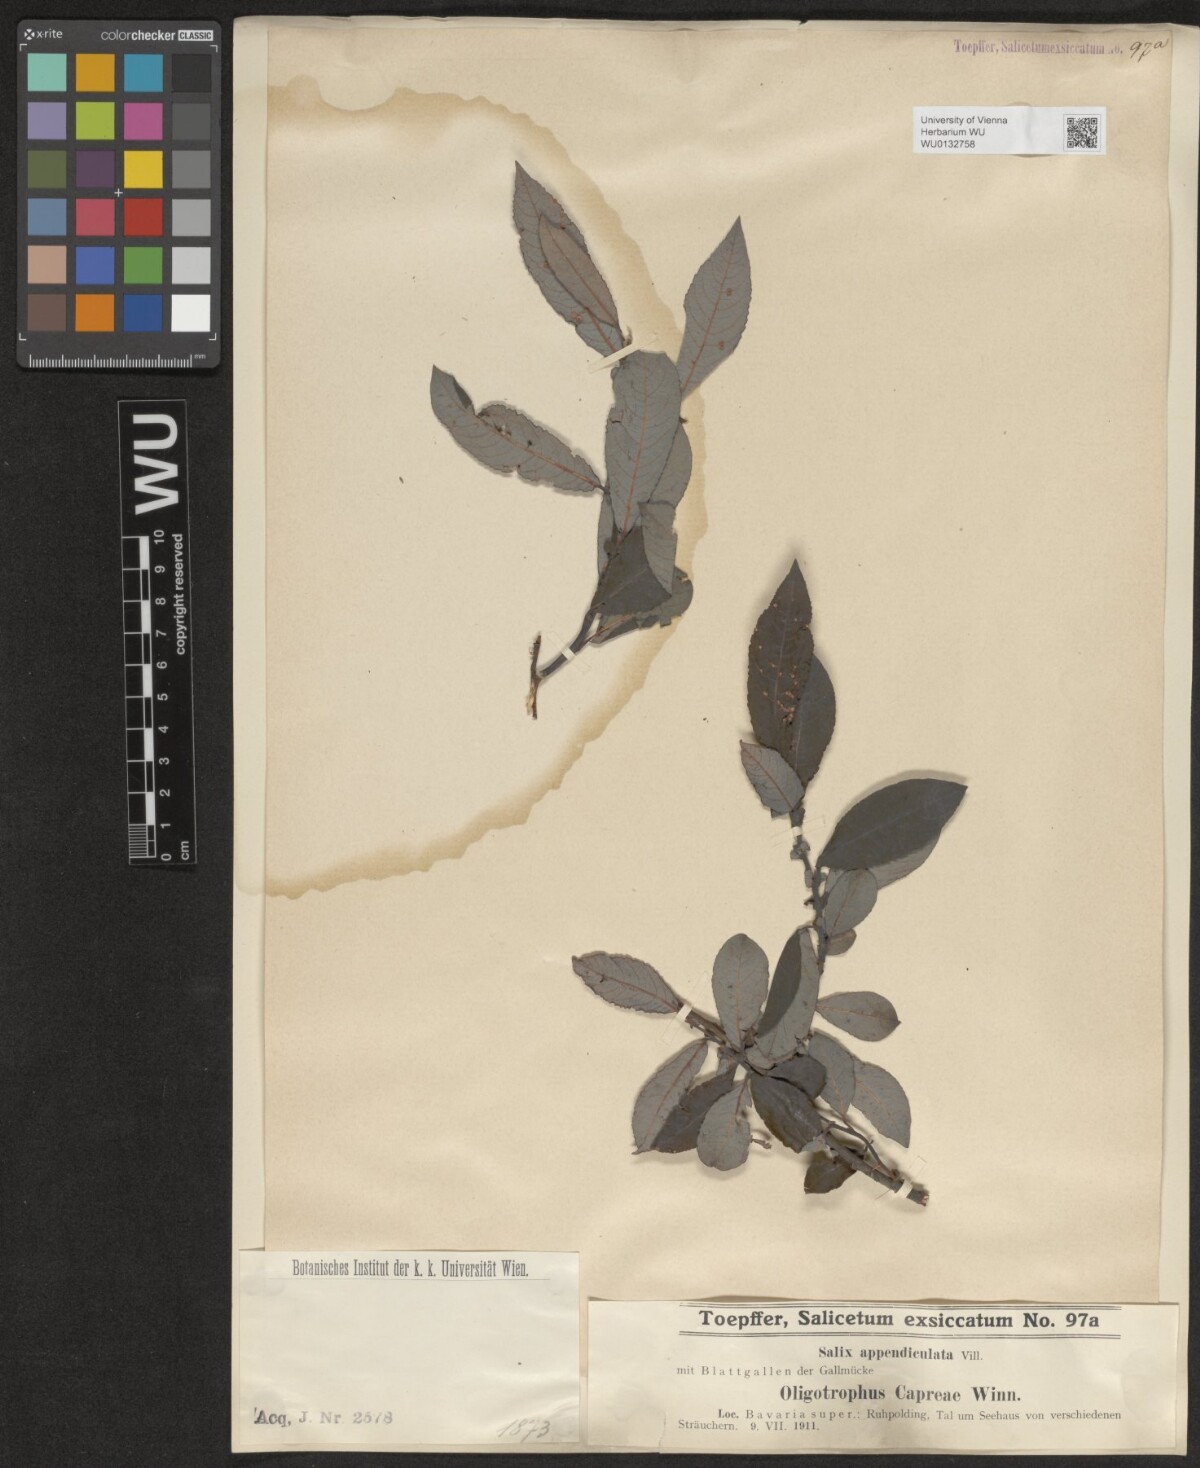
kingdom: Plantae
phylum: Tracheophyta
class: Magnoliopsida
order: Malpighiales
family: Salicaceae
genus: Salix
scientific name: Salix appendiculata
